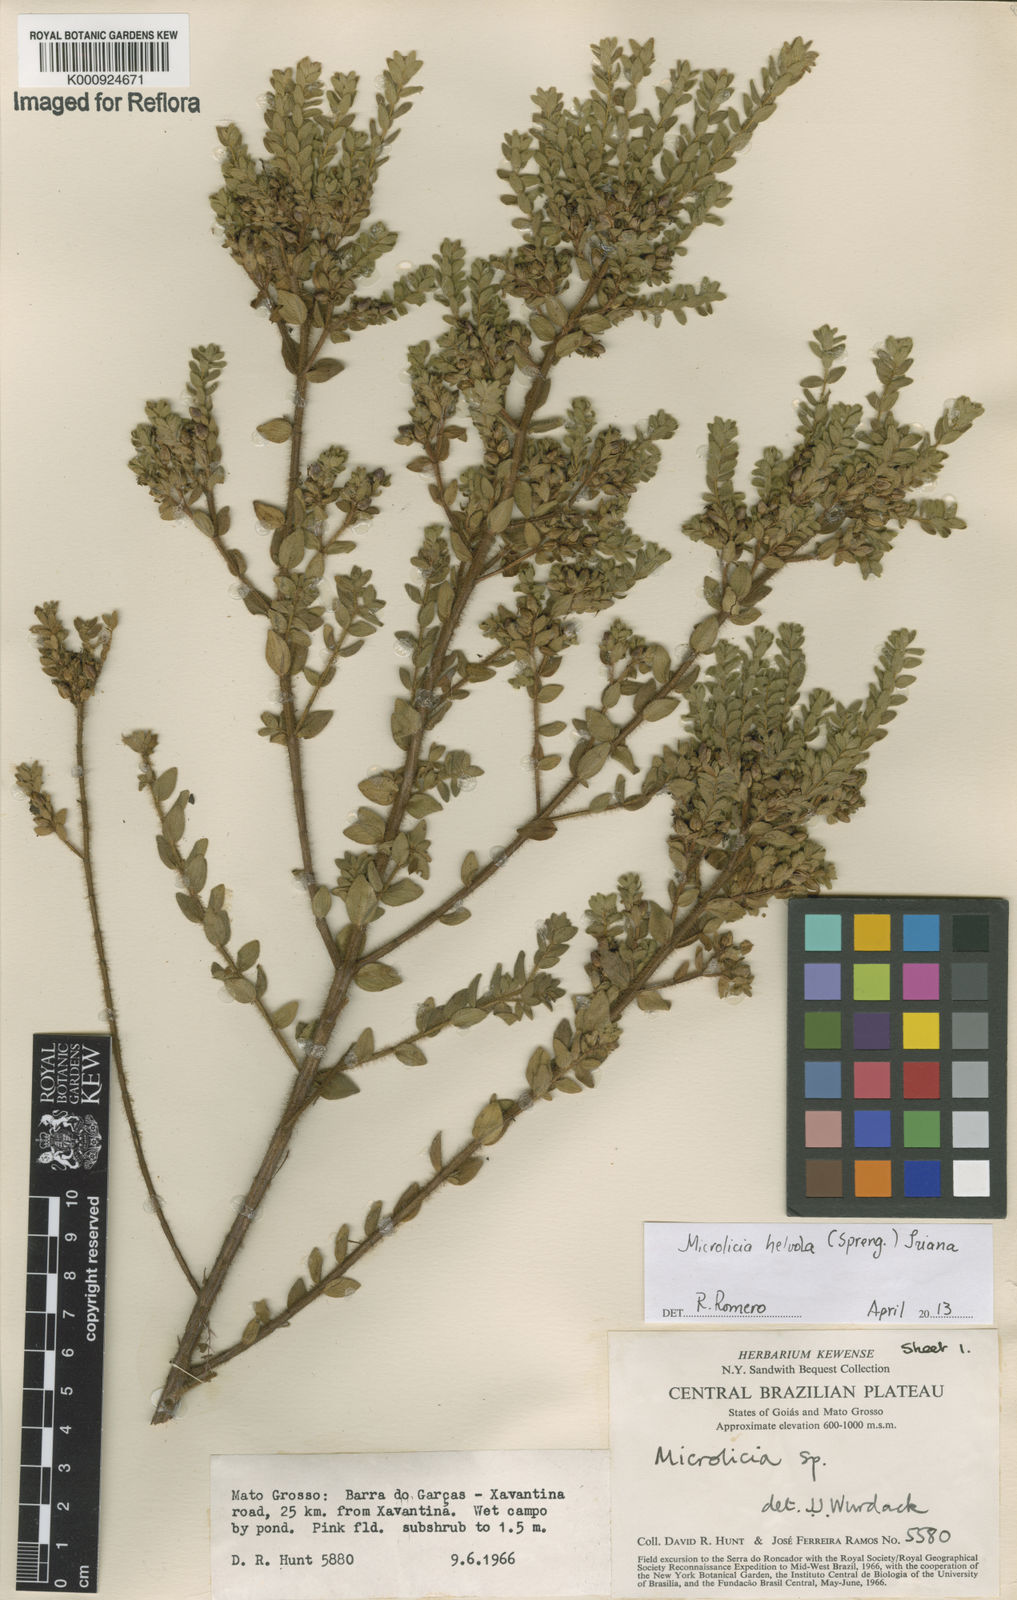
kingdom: Plantae
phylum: Tracheophyta
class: Magnoliopsida
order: Myrtales
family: Melastomataceae
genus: Microlicia
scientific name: Microlicia helvola
